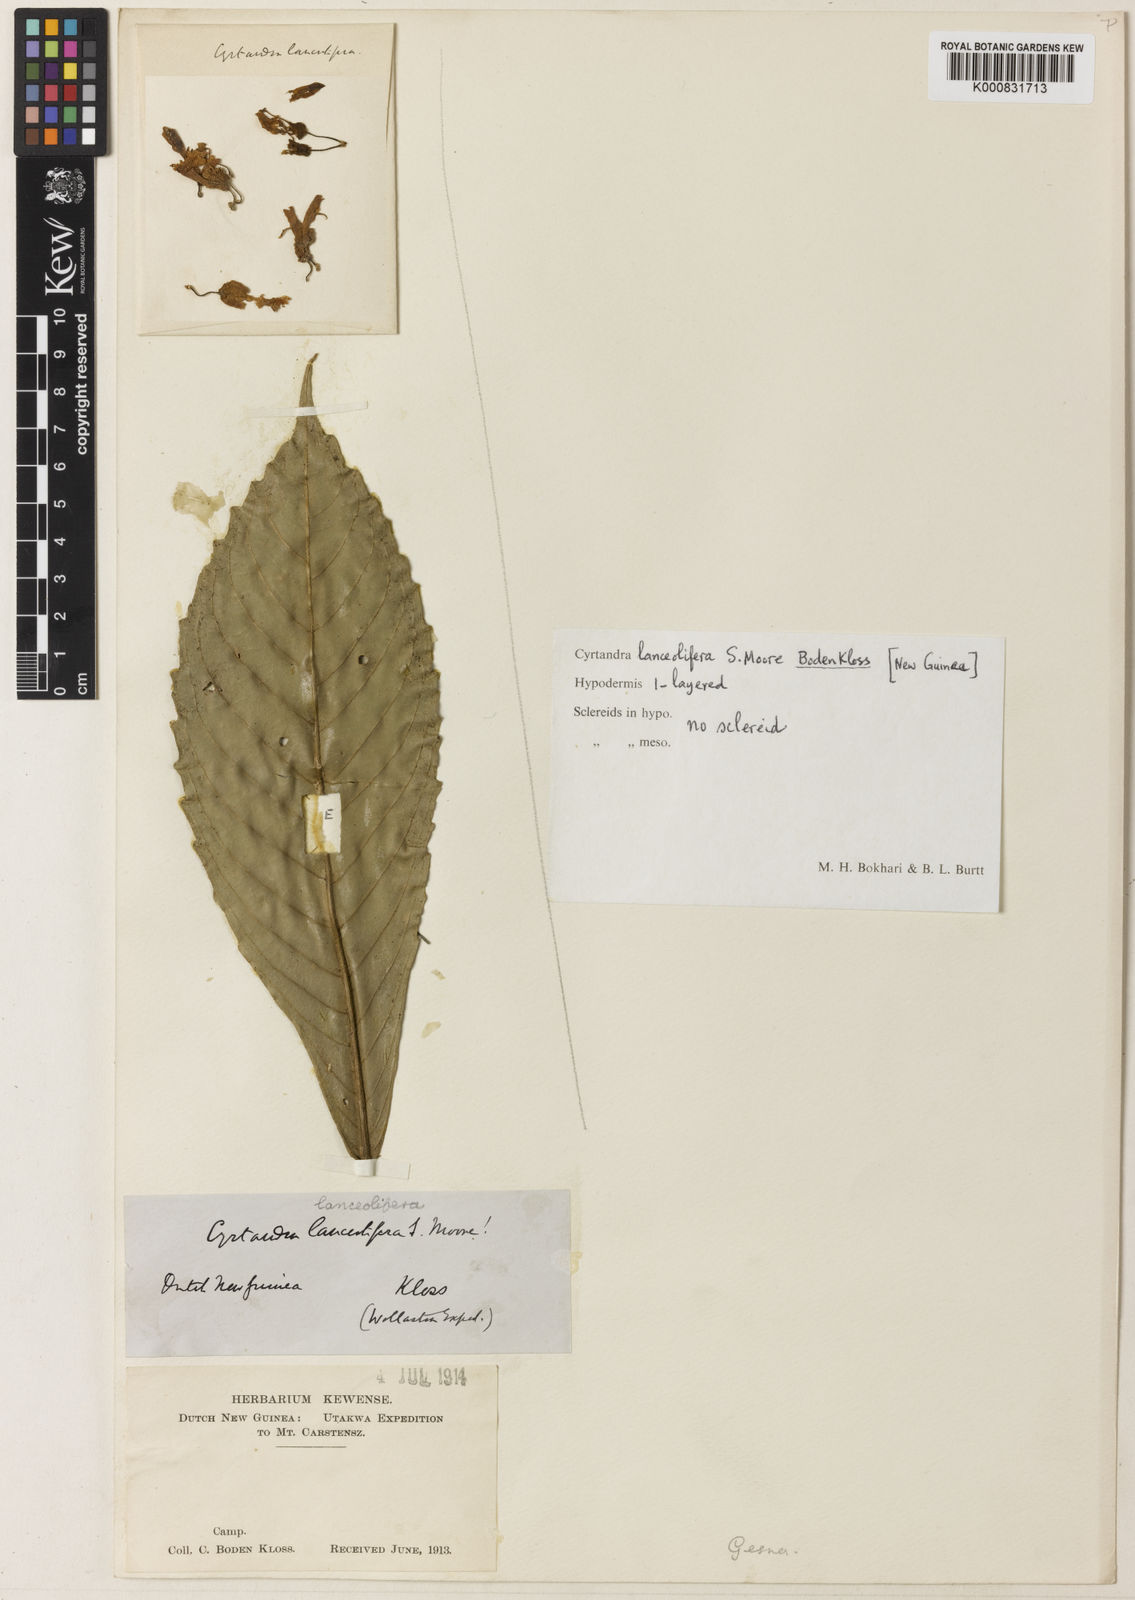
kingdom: Plantae
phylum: Tracheophyta
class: Magnoliopsida
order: Lamiales
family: Gesneriaceae
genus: Cyrtandra
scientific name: Cyrtandra lanceolifera
